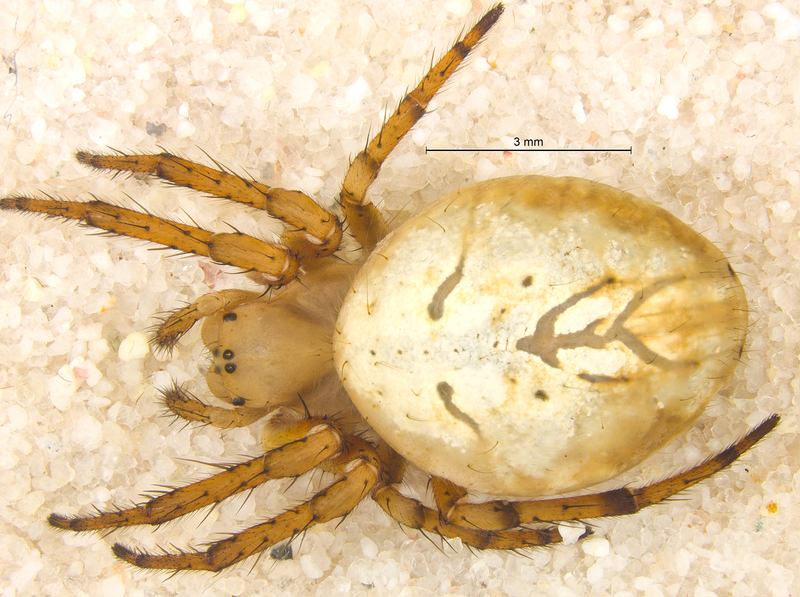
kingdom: Animalia
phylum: Arthropoda
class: Arachnida
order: Araneae
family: Araneidae
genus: Araniella
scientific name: Araniella alpica
